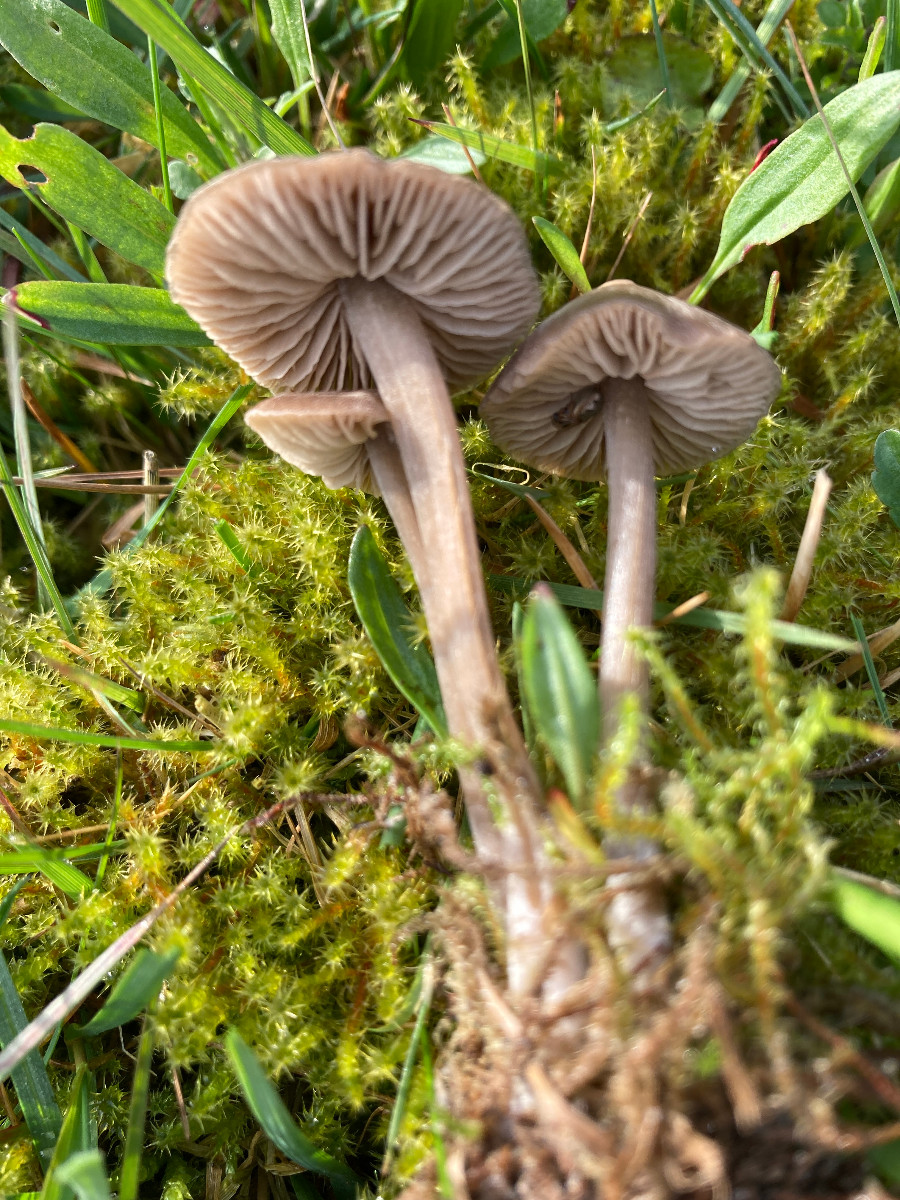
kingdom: Fungi
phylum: Basidiomycota
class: Agaricomycetes
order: Agaricales
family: Entolomataceae
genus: Entoloma
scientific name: Entoloma
